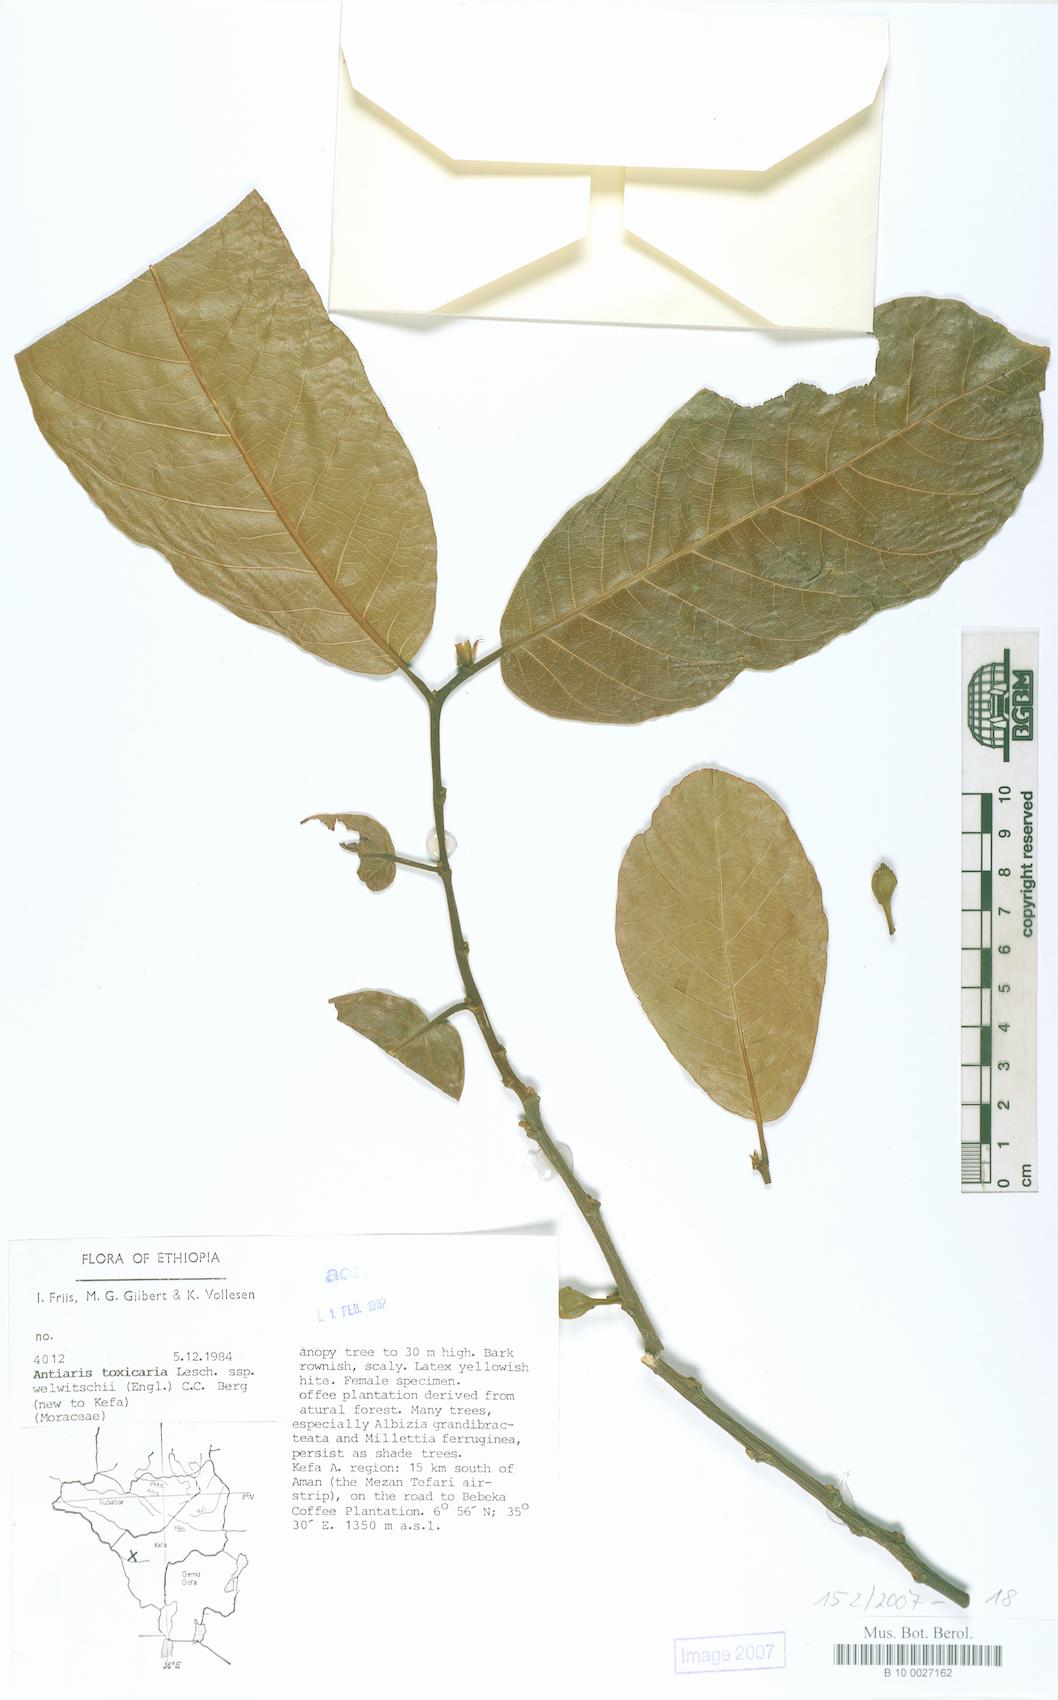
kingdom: Plantae
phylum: Tracheophyta
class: Magnoliopsida
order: Rosales
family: Moraceae
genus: Antiaris
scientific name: Antiaris toxicaria
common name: Sackingtree
